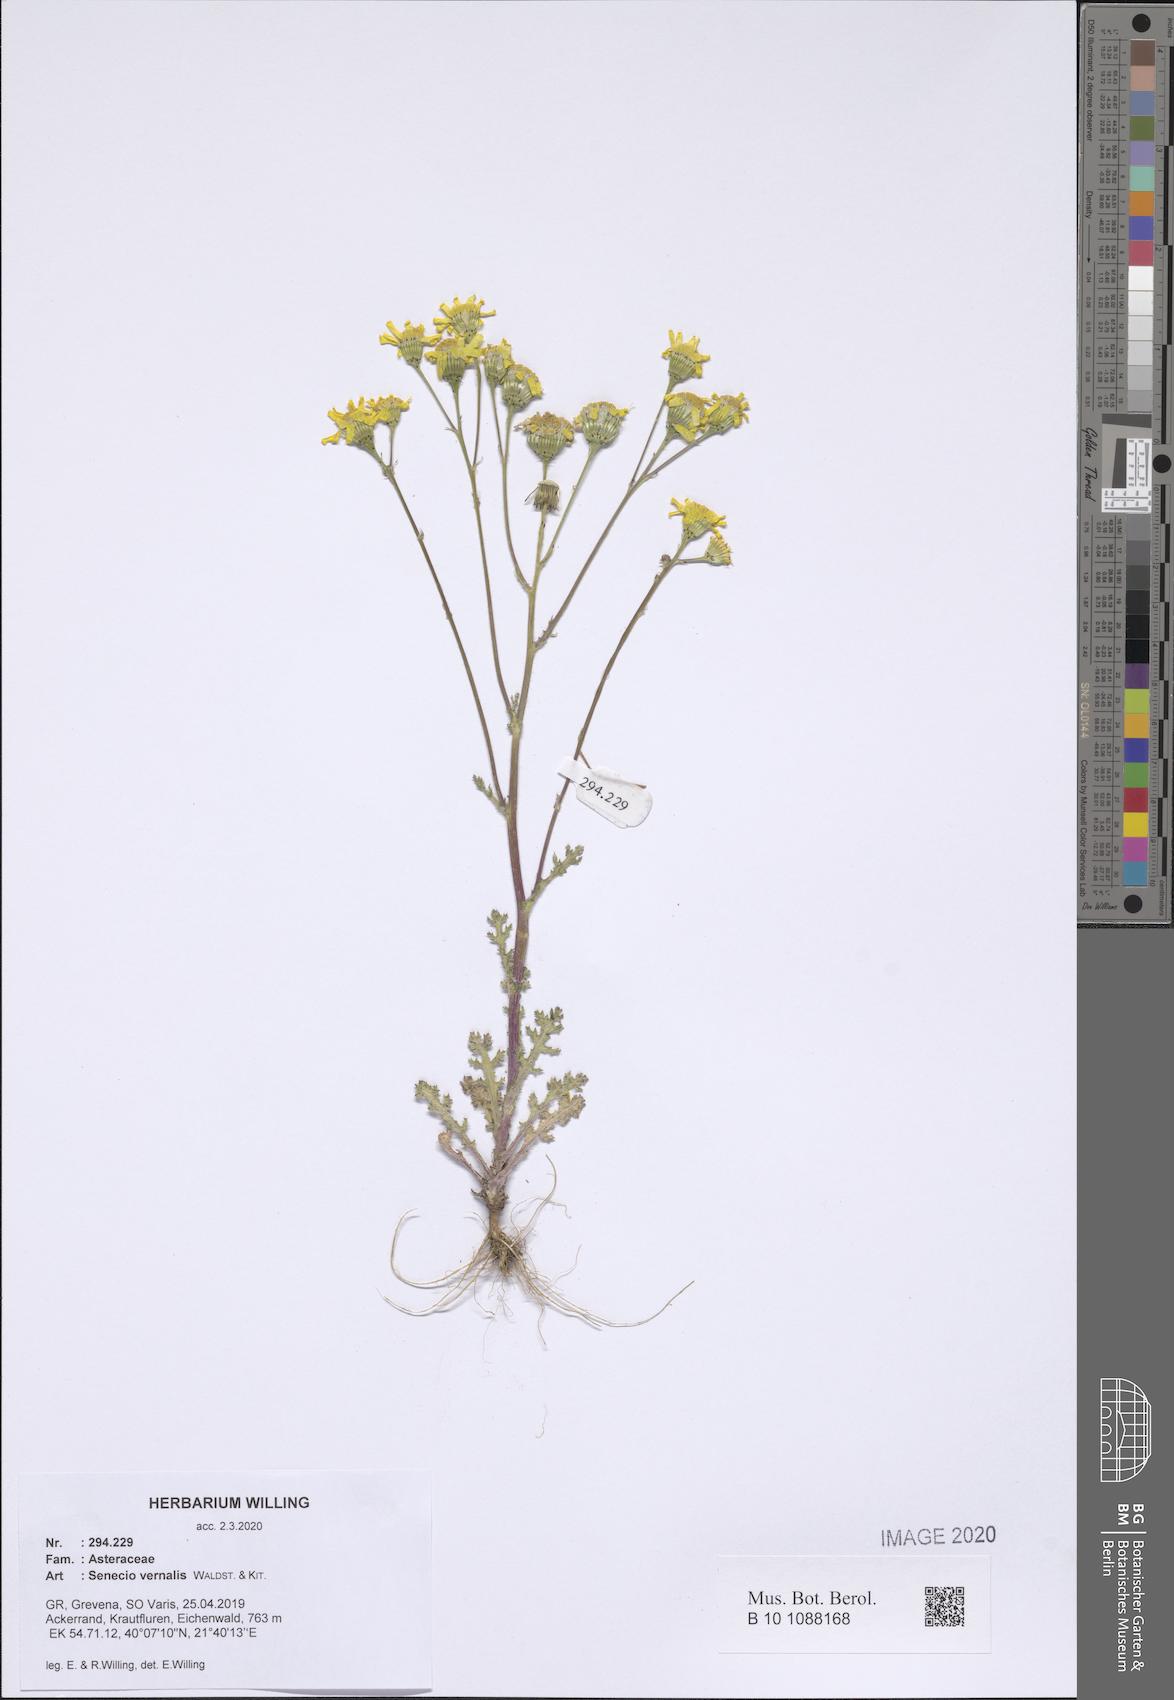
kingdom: Plantae
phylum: Tracheophyta
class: Magnoliopsida
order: Asterales
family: Asteraceae
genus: Senecio
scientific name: Senecio vernalis
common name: Eastern groundsel
